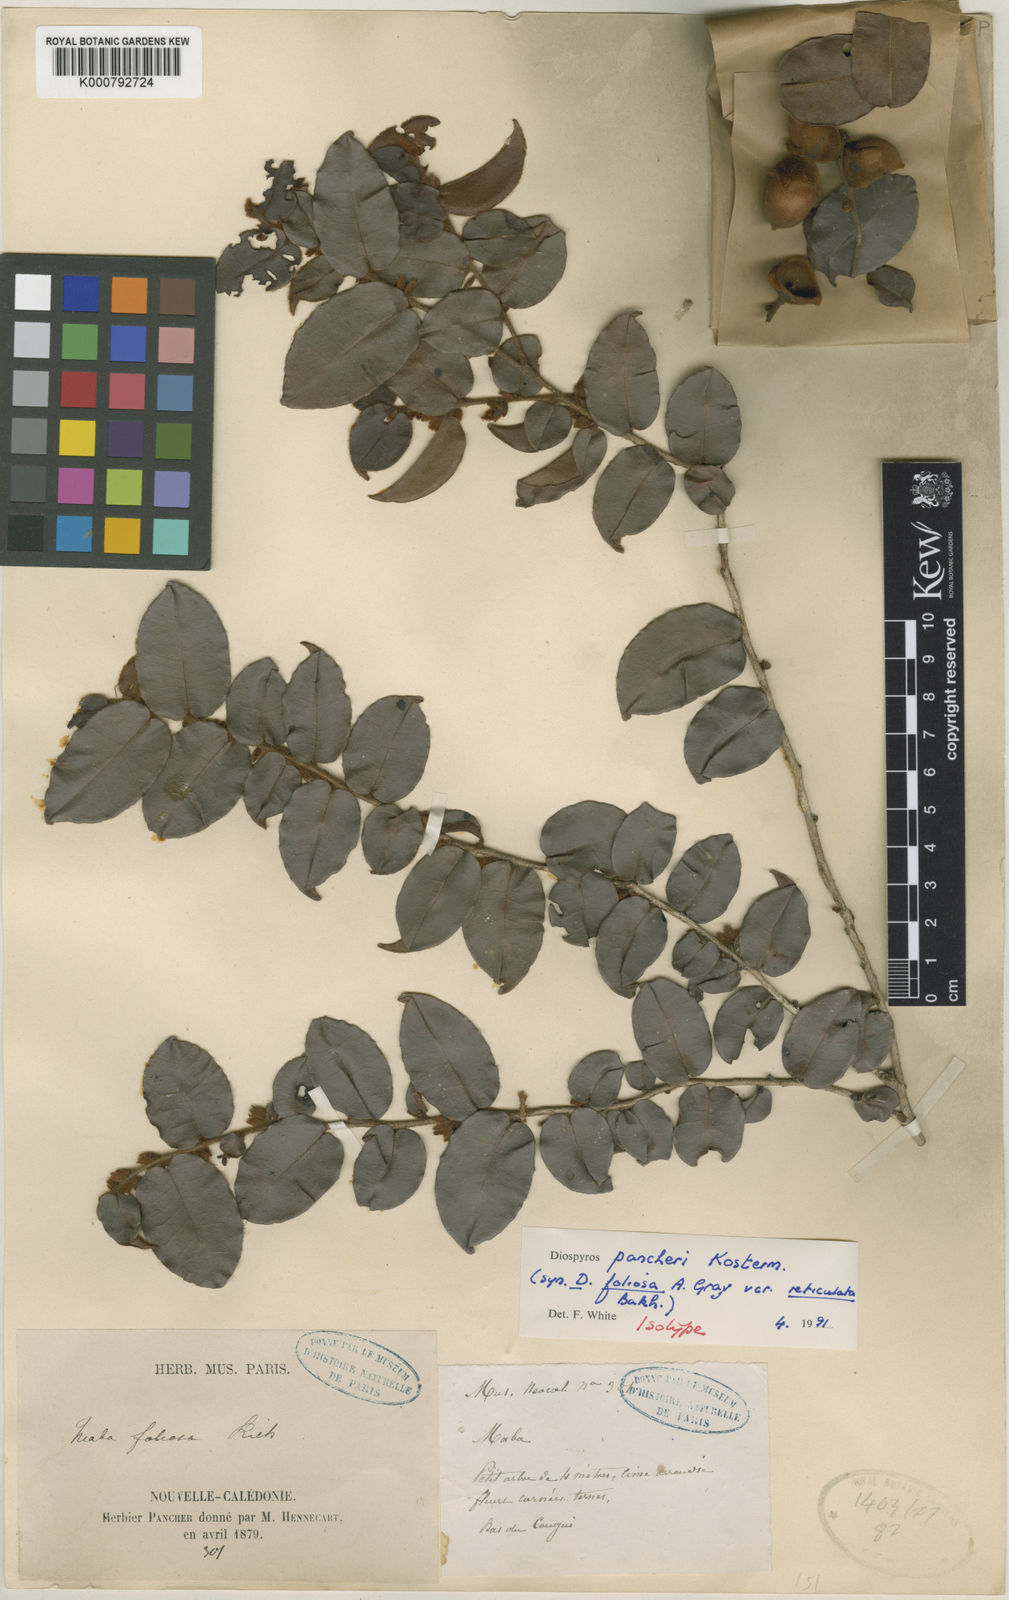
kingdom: Plantae
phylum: Tracheophyta
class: Magnoliopsida
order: Ericales
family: Ebenaceae
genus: Diospyros
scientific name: Diospyros pancheri
